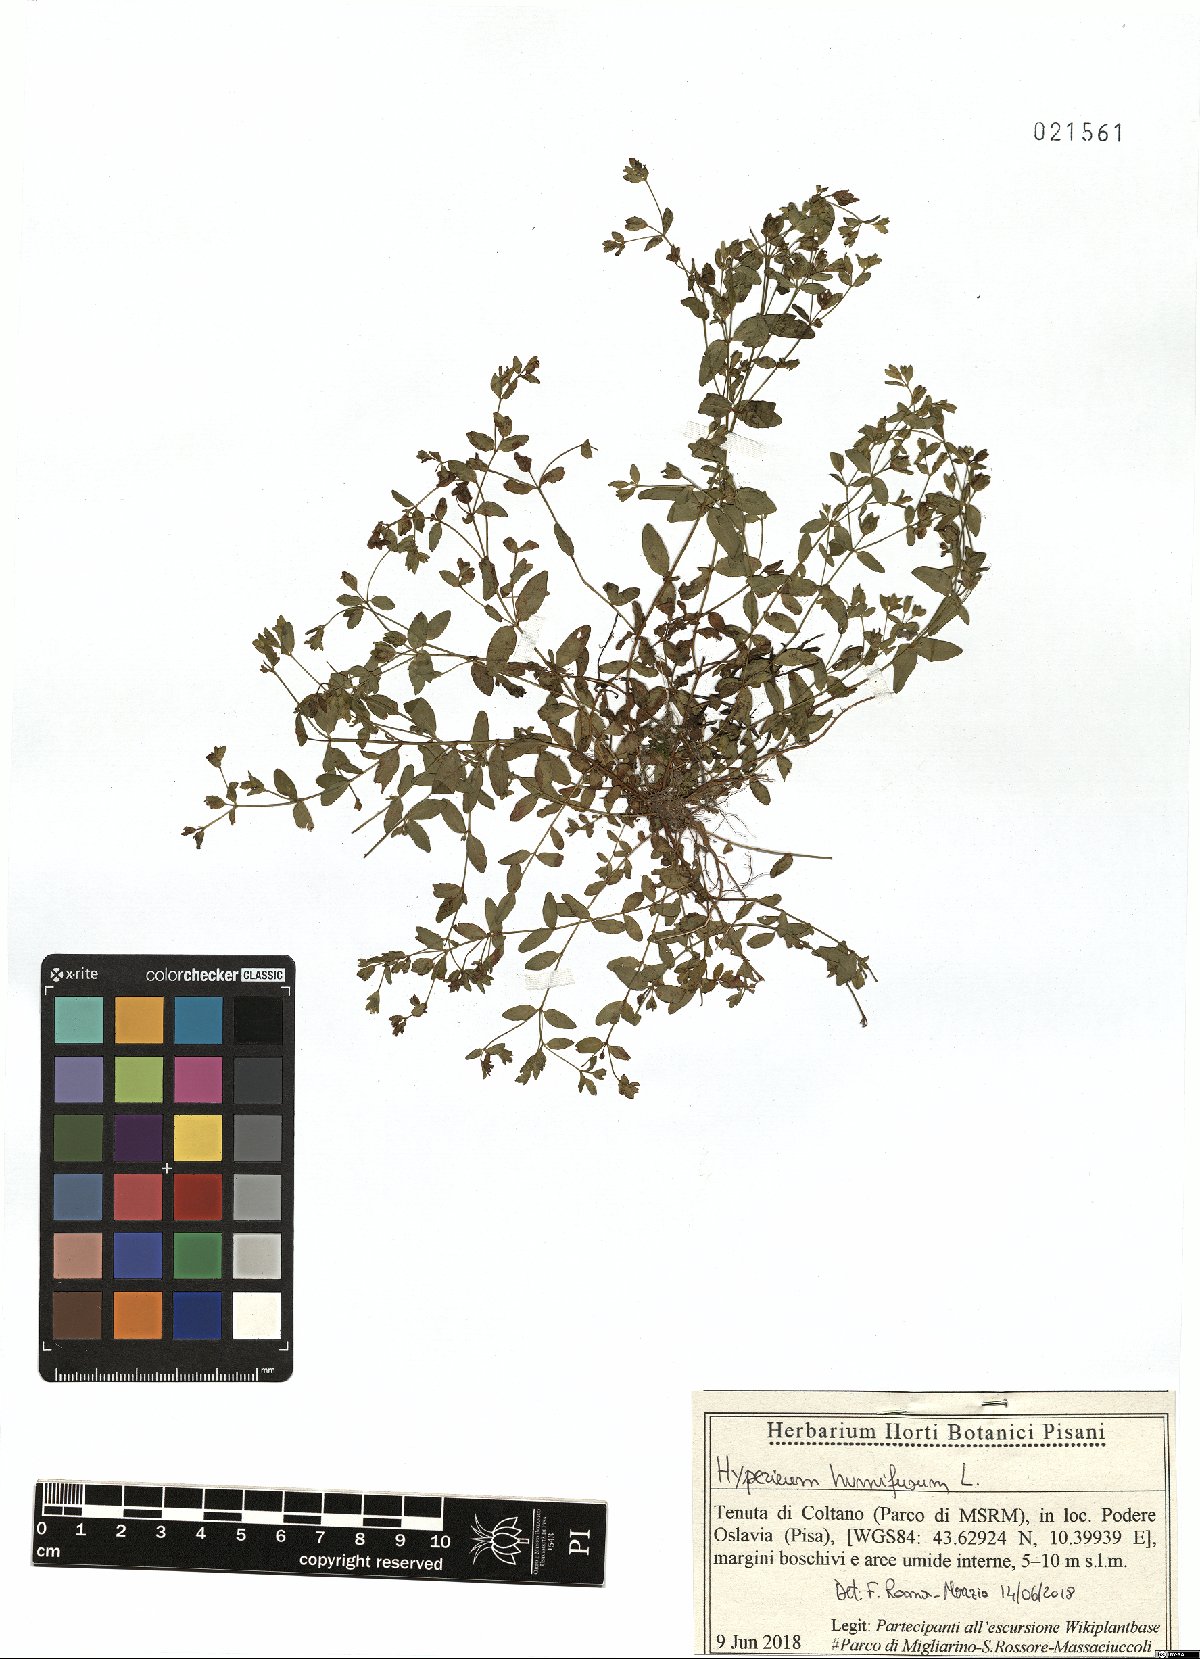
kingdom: Plantae
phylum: Tracheophyta
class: Magnoliopsida
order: Malpighiales
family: Hypericaceae
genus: Hypericum
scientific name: Hypericum humifusum
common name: Trailing st. john's-wort
